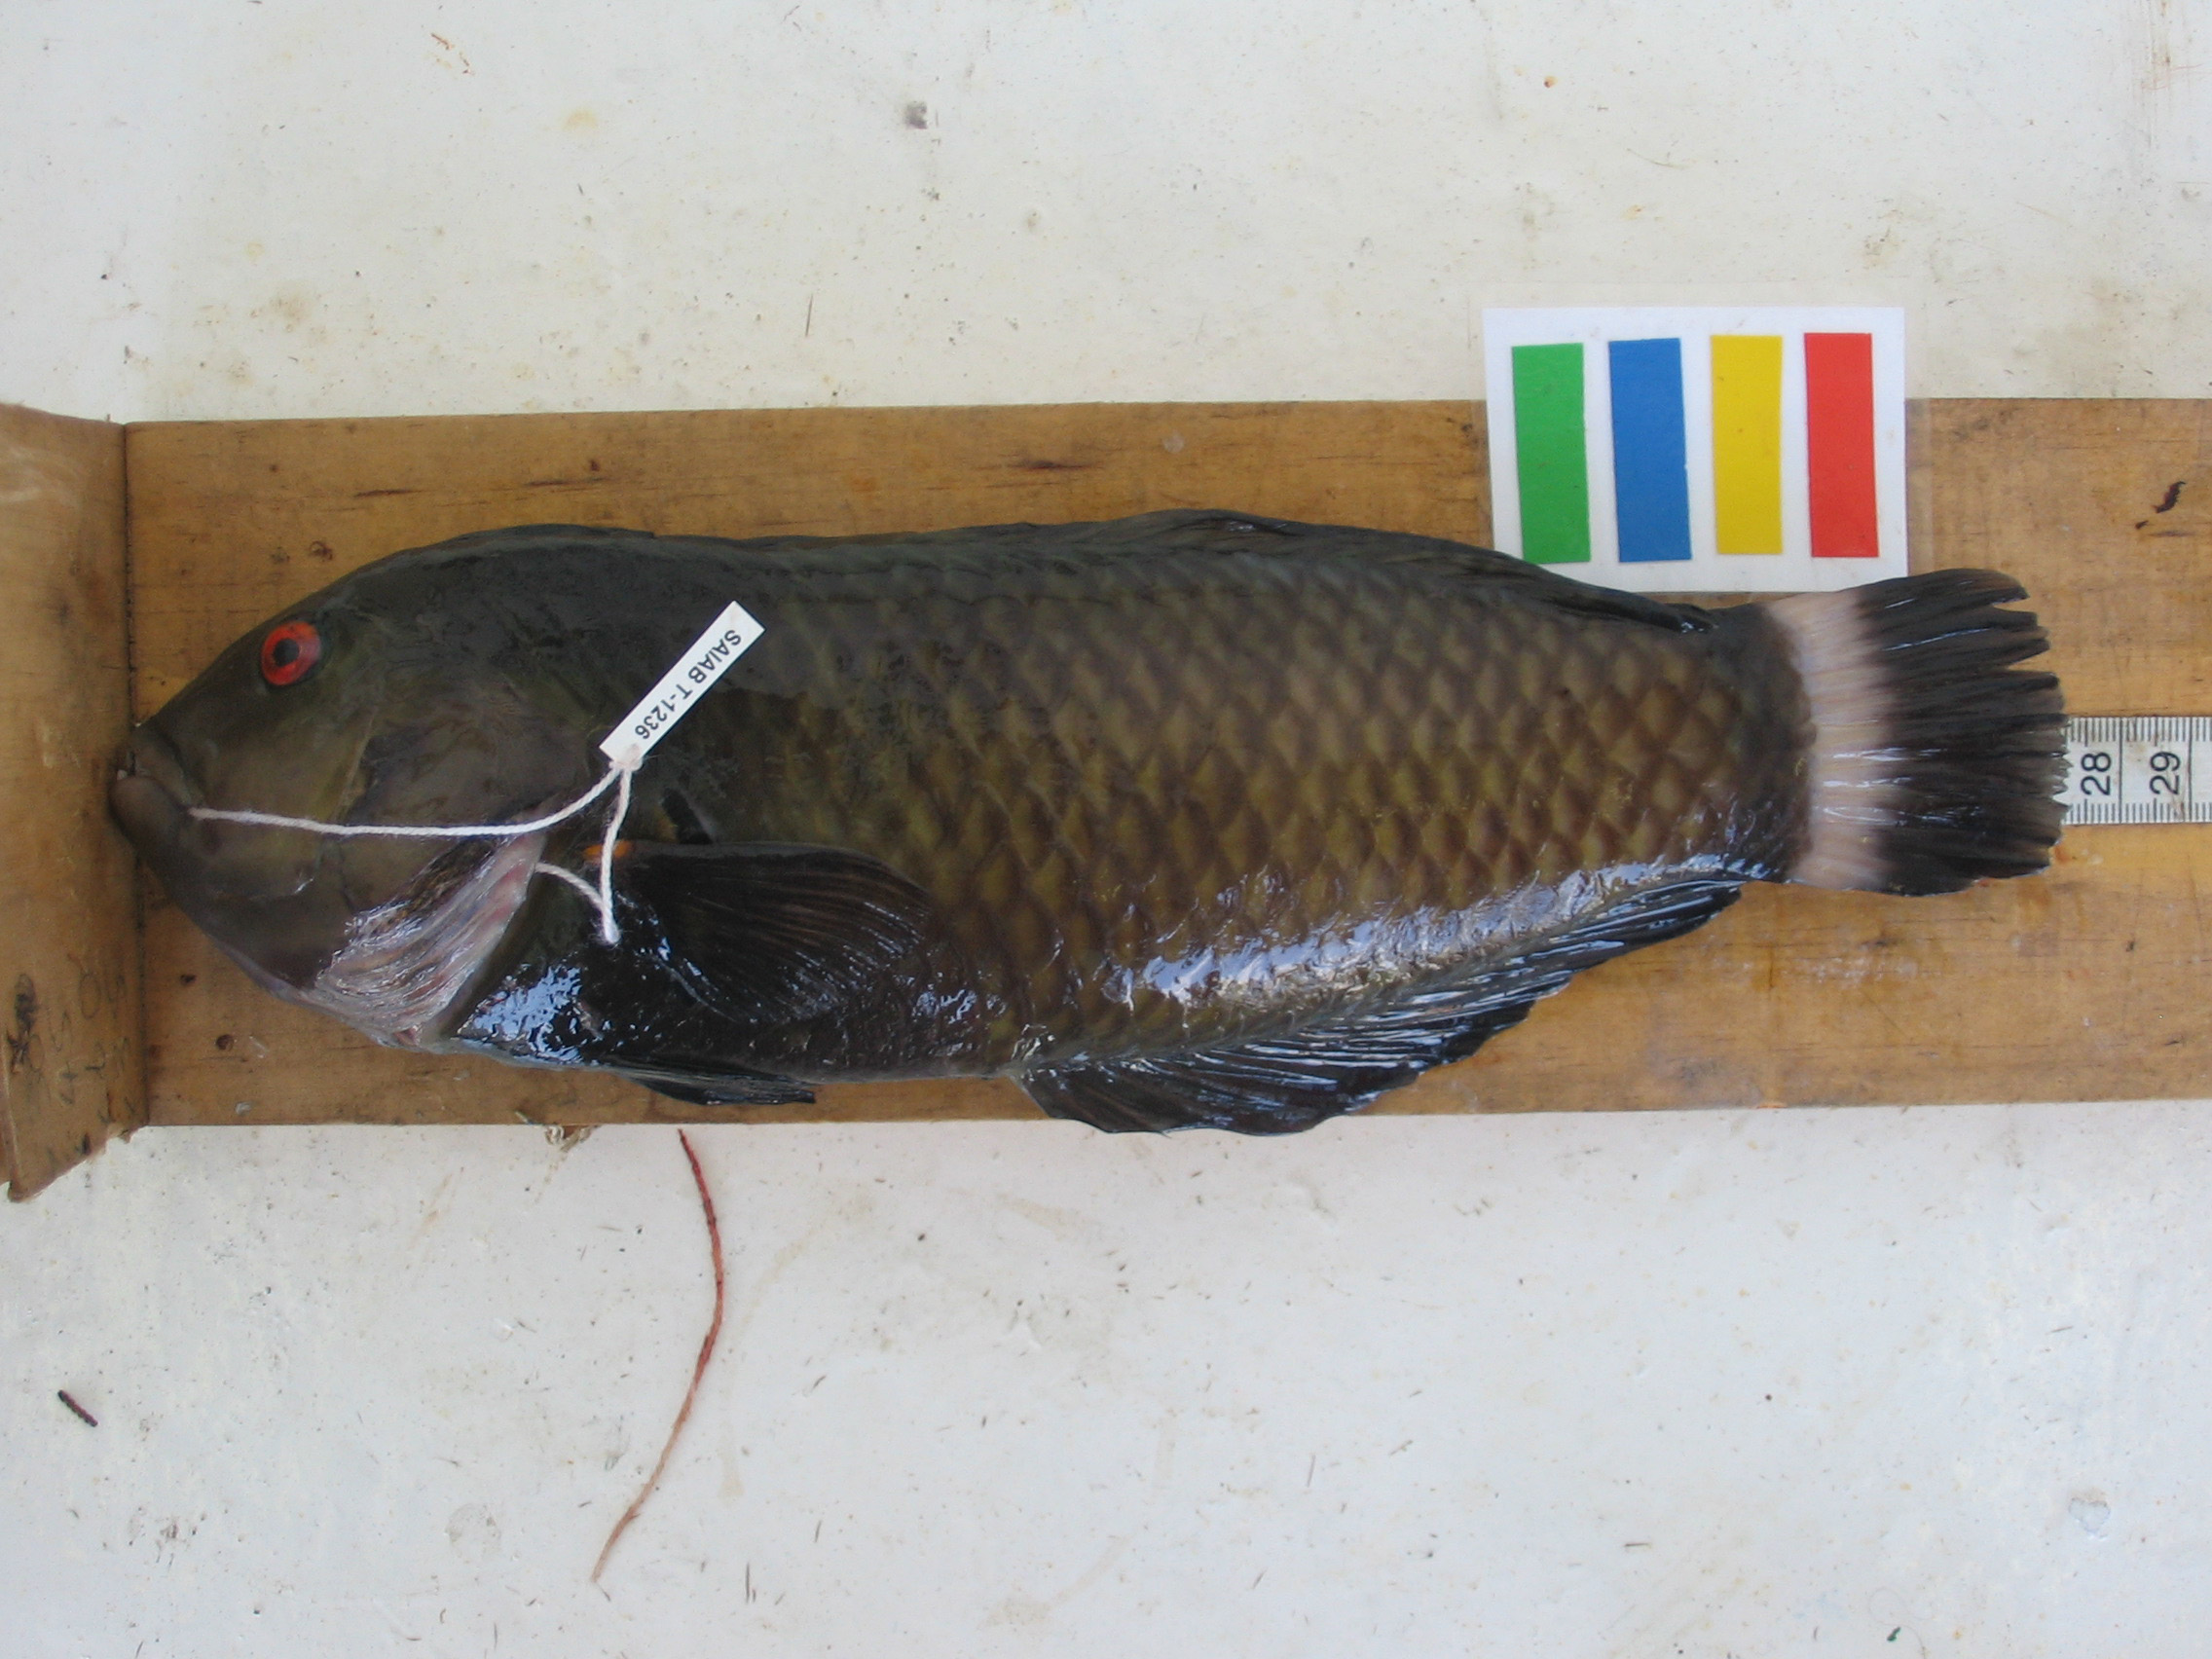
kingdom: Animalia
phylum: Chordata
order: Perciformes
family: Labridae
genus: Novaculichthys
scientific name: Novaculichthys taeniourus
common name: Rockmover wrasse
